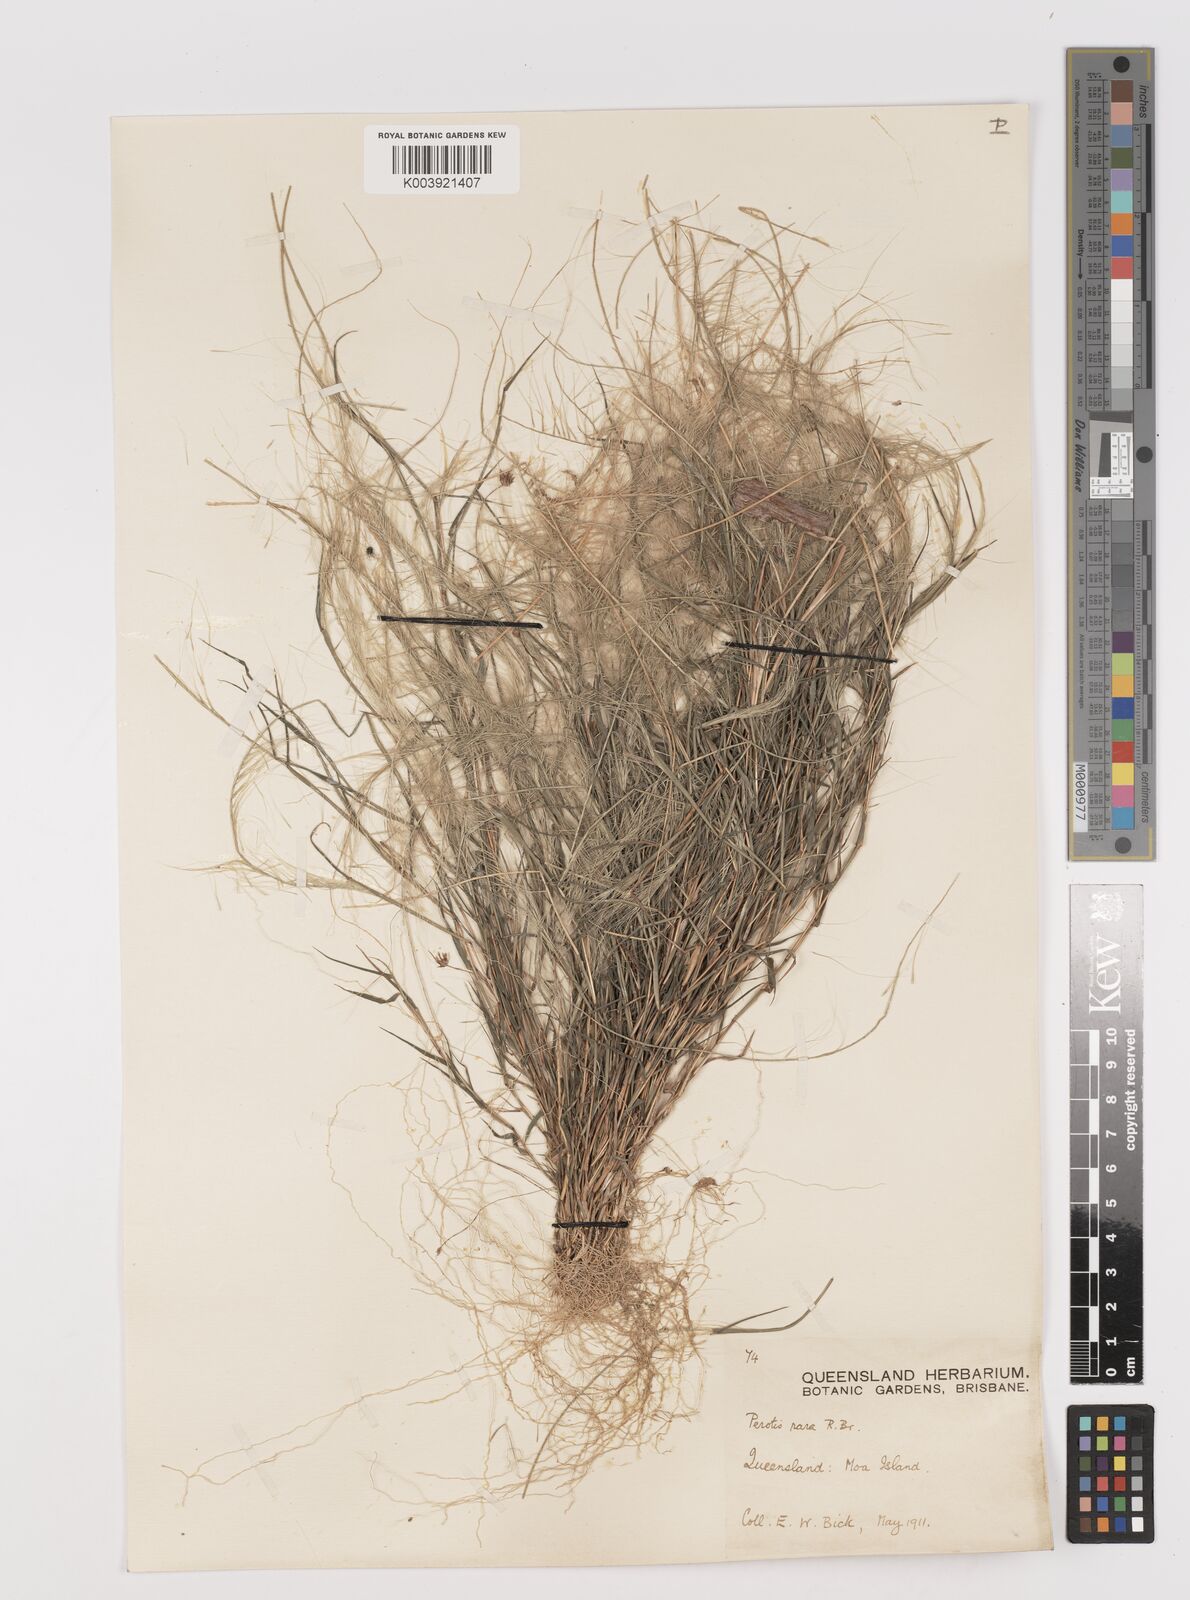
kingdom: Plantae
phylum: Tracheophyta
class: Liliopsida
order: Poales
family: Poaceae
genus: Perotis
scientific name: Perotis rara
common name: Comet grass
